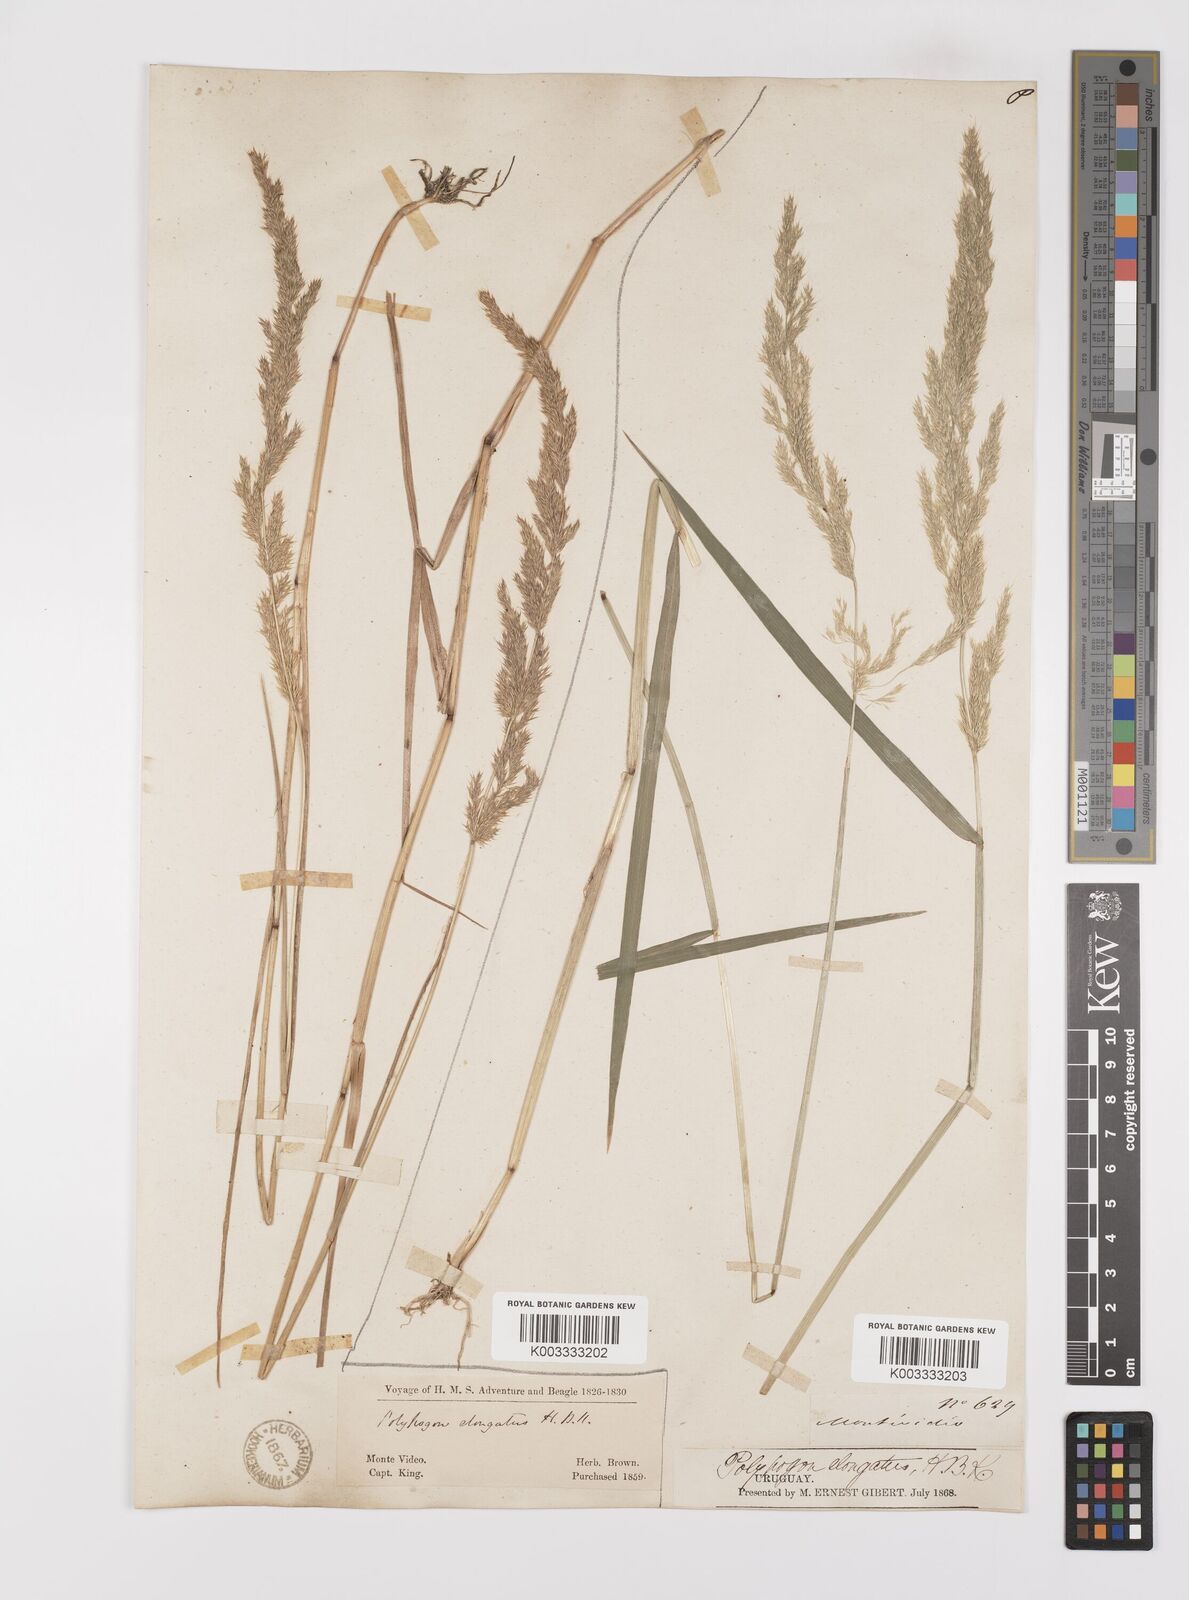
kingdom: Plantae
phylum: Tracheophyta
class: Liliopsida
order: Poales
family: Poaceae
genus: Polypogon
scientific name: Polypogon elongatus
